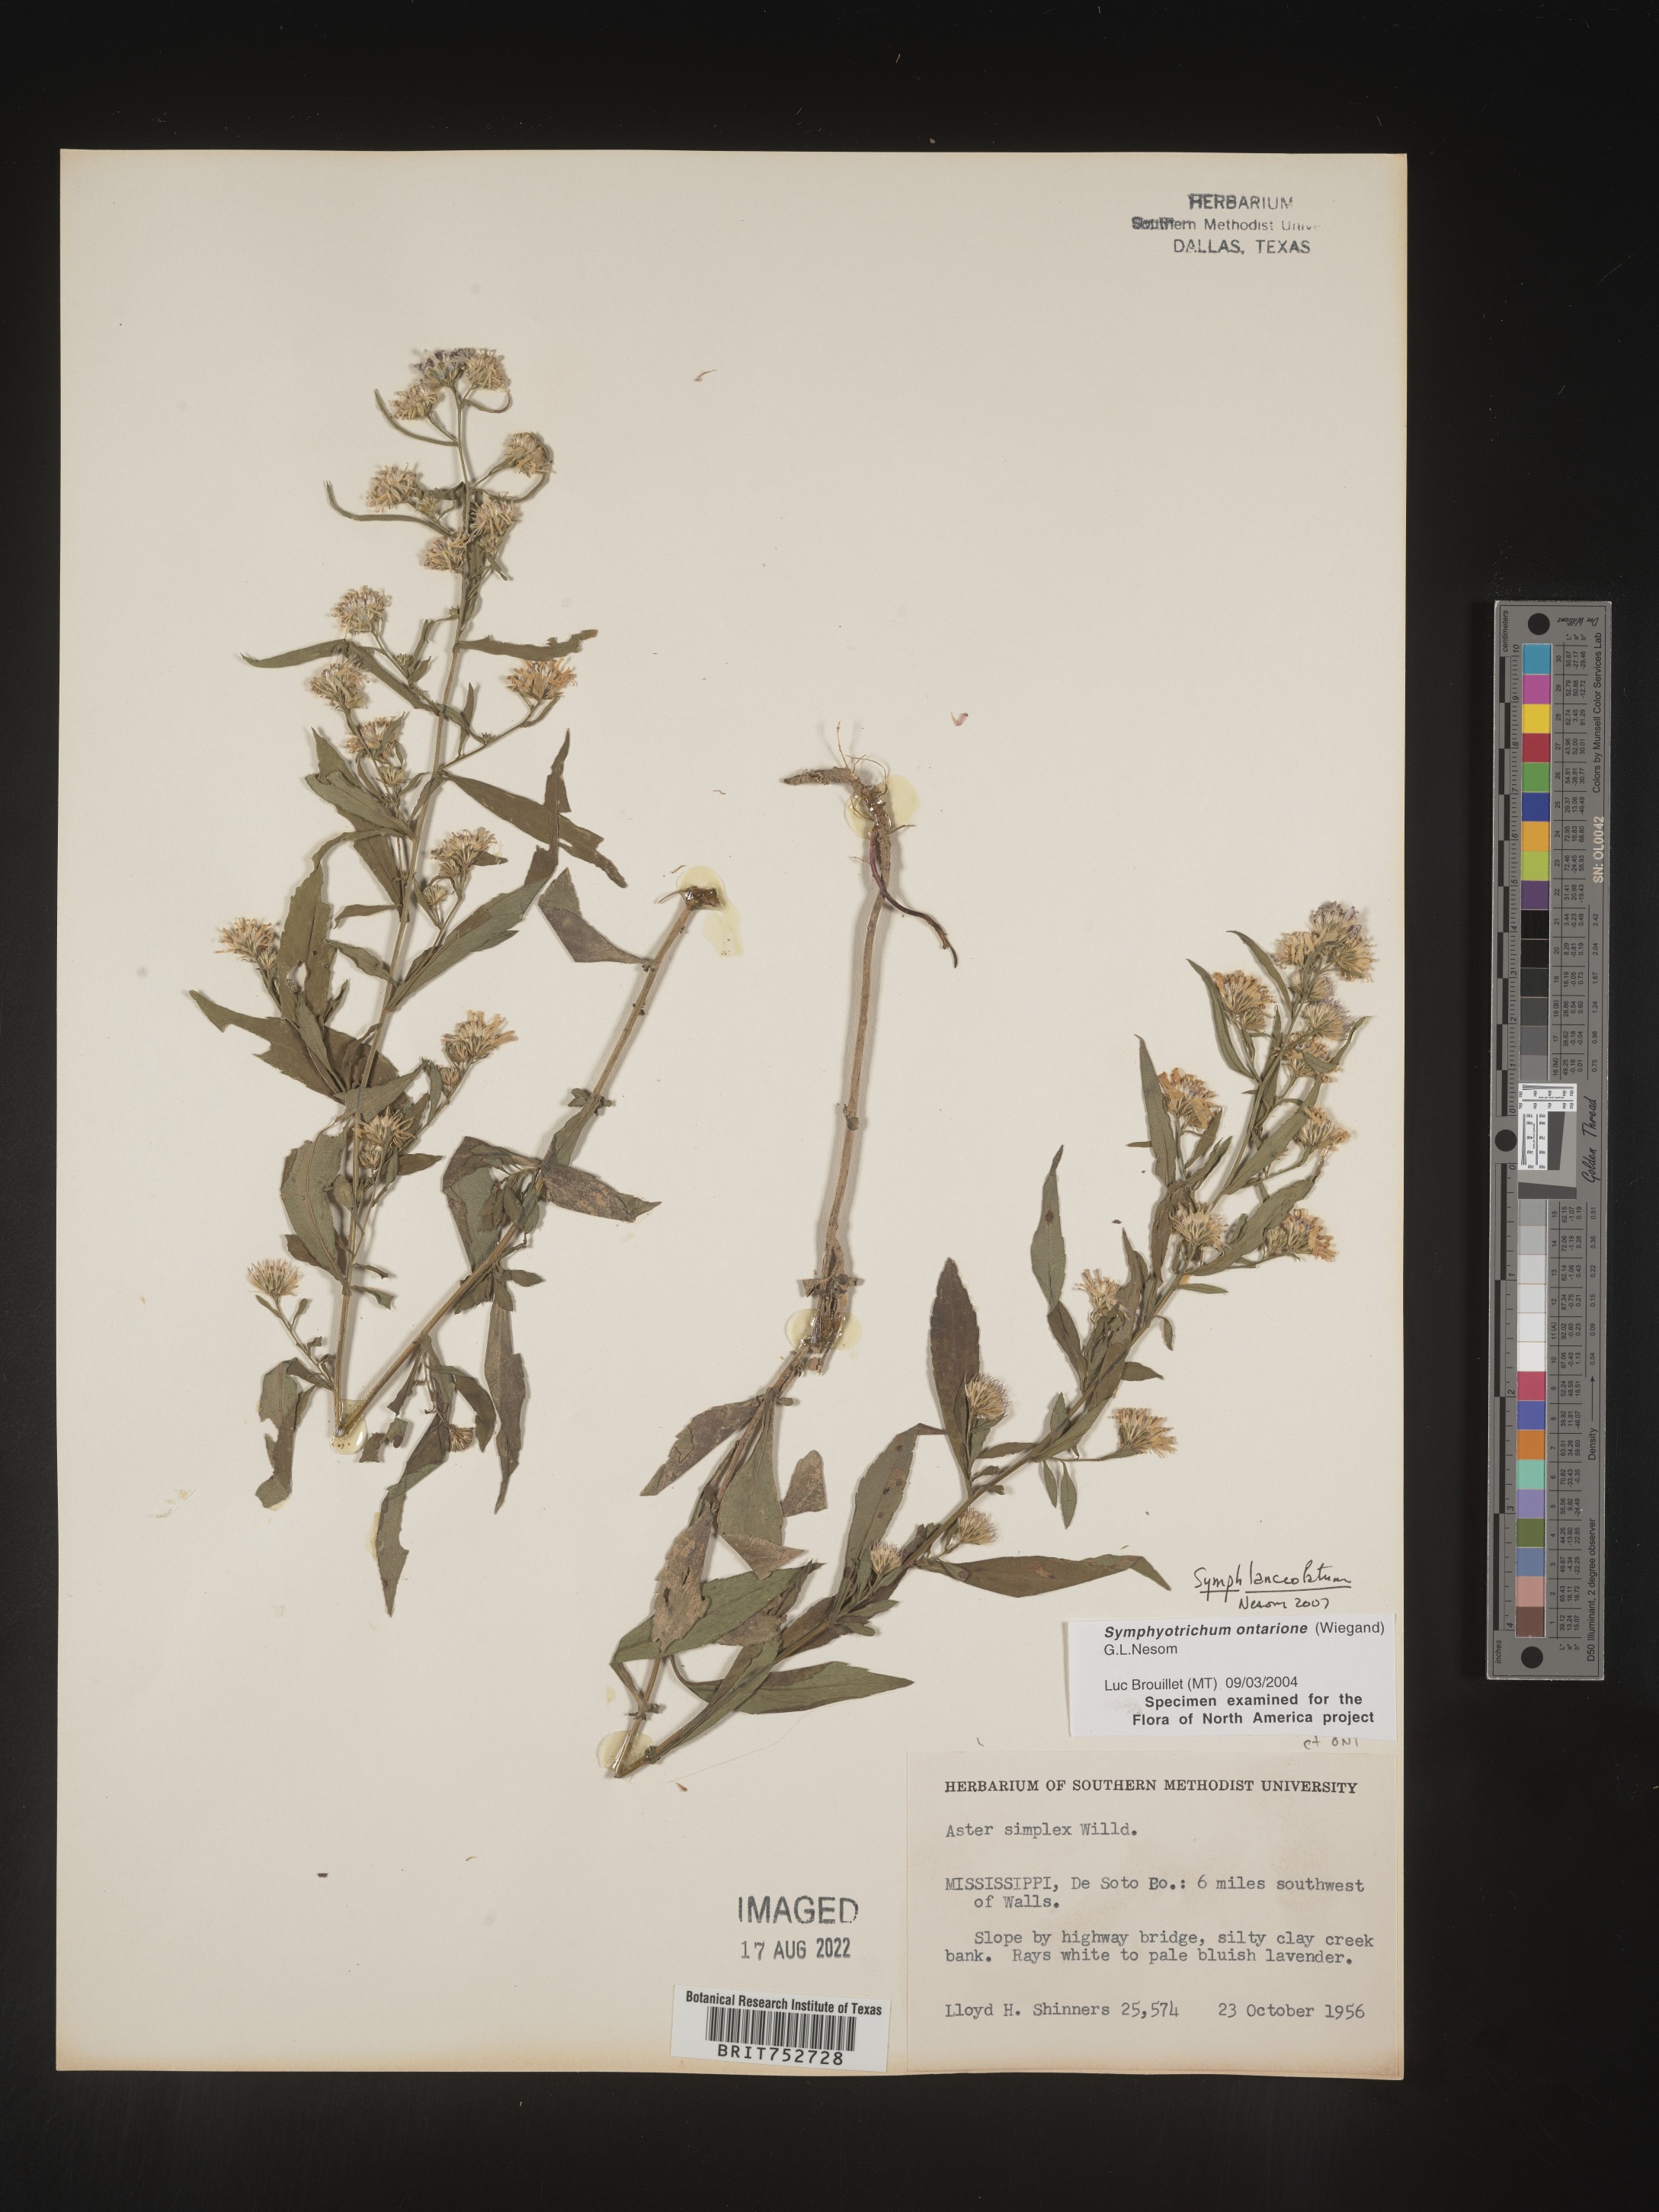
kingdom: Plantae
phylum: Tracheophyta
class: Magnoliopsida
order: Asterales
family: Asteraceae
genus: Symphyotrichum
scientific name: Symphyotrichum lanceolatum
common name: Panicled aster
